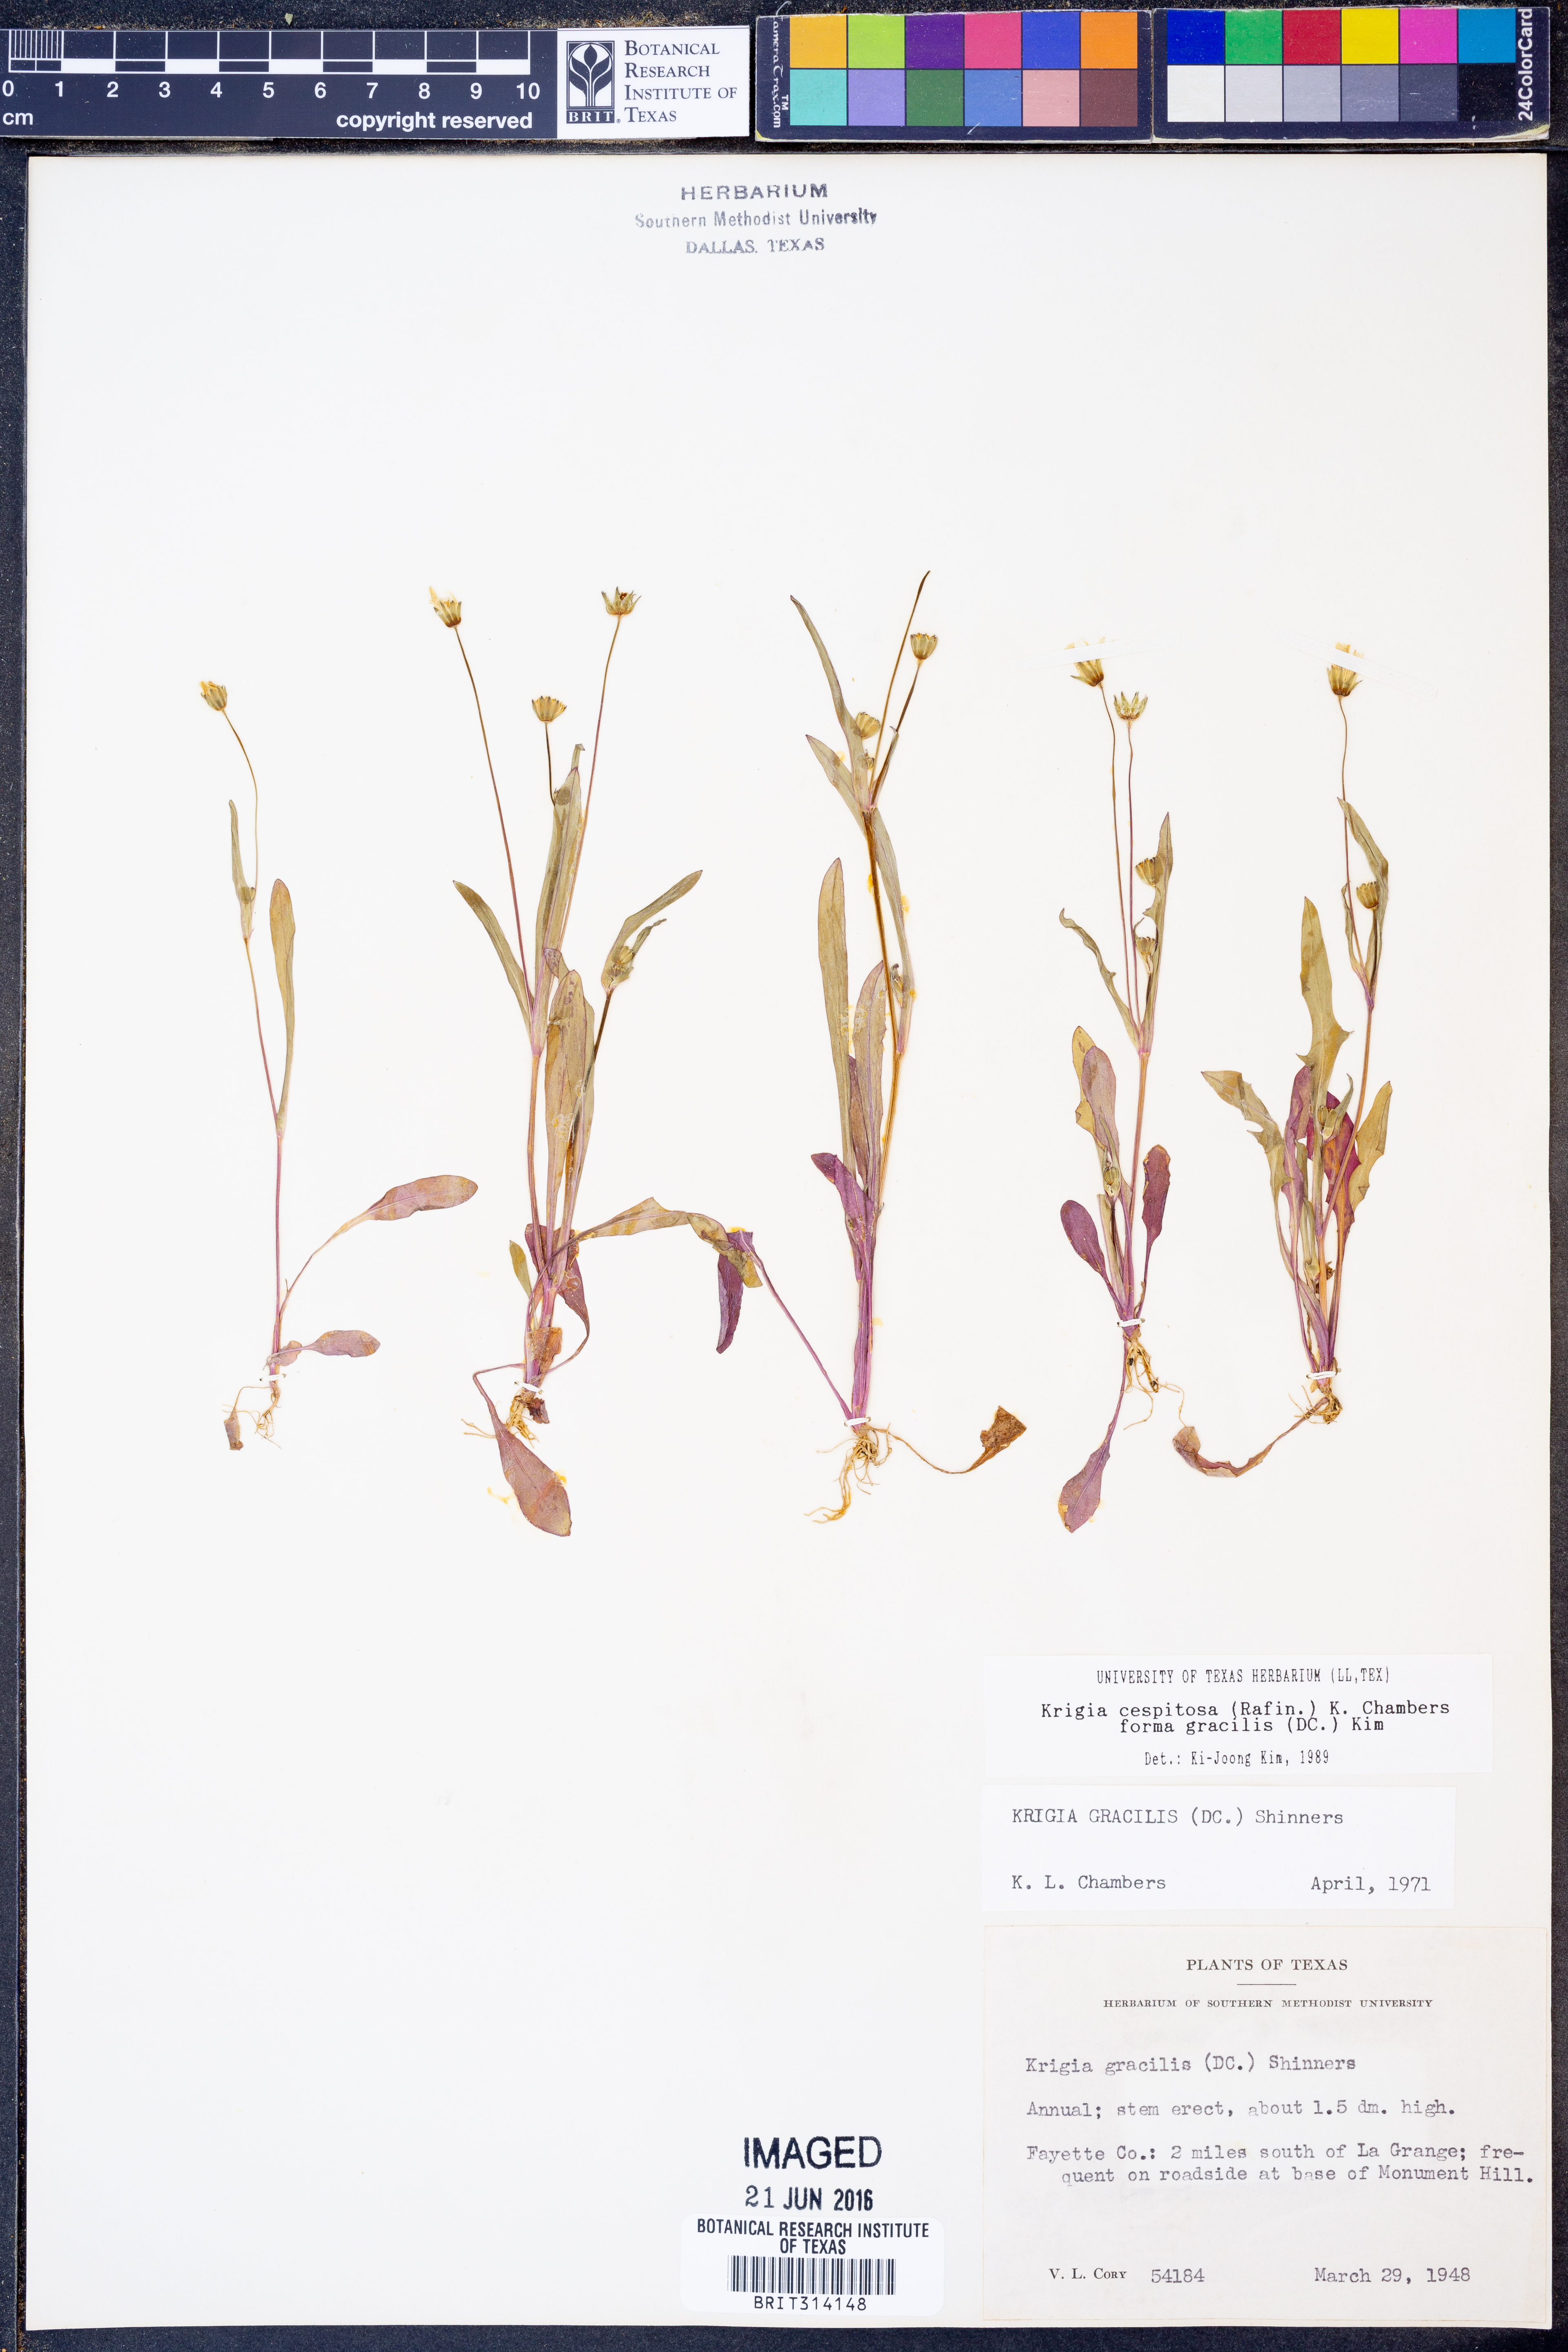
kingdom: Plantae
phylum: Tracheophyta
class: Magnoliopsida
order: Asterales
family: Asteraceae
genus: Krigia
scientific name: Krigia cespitosa
